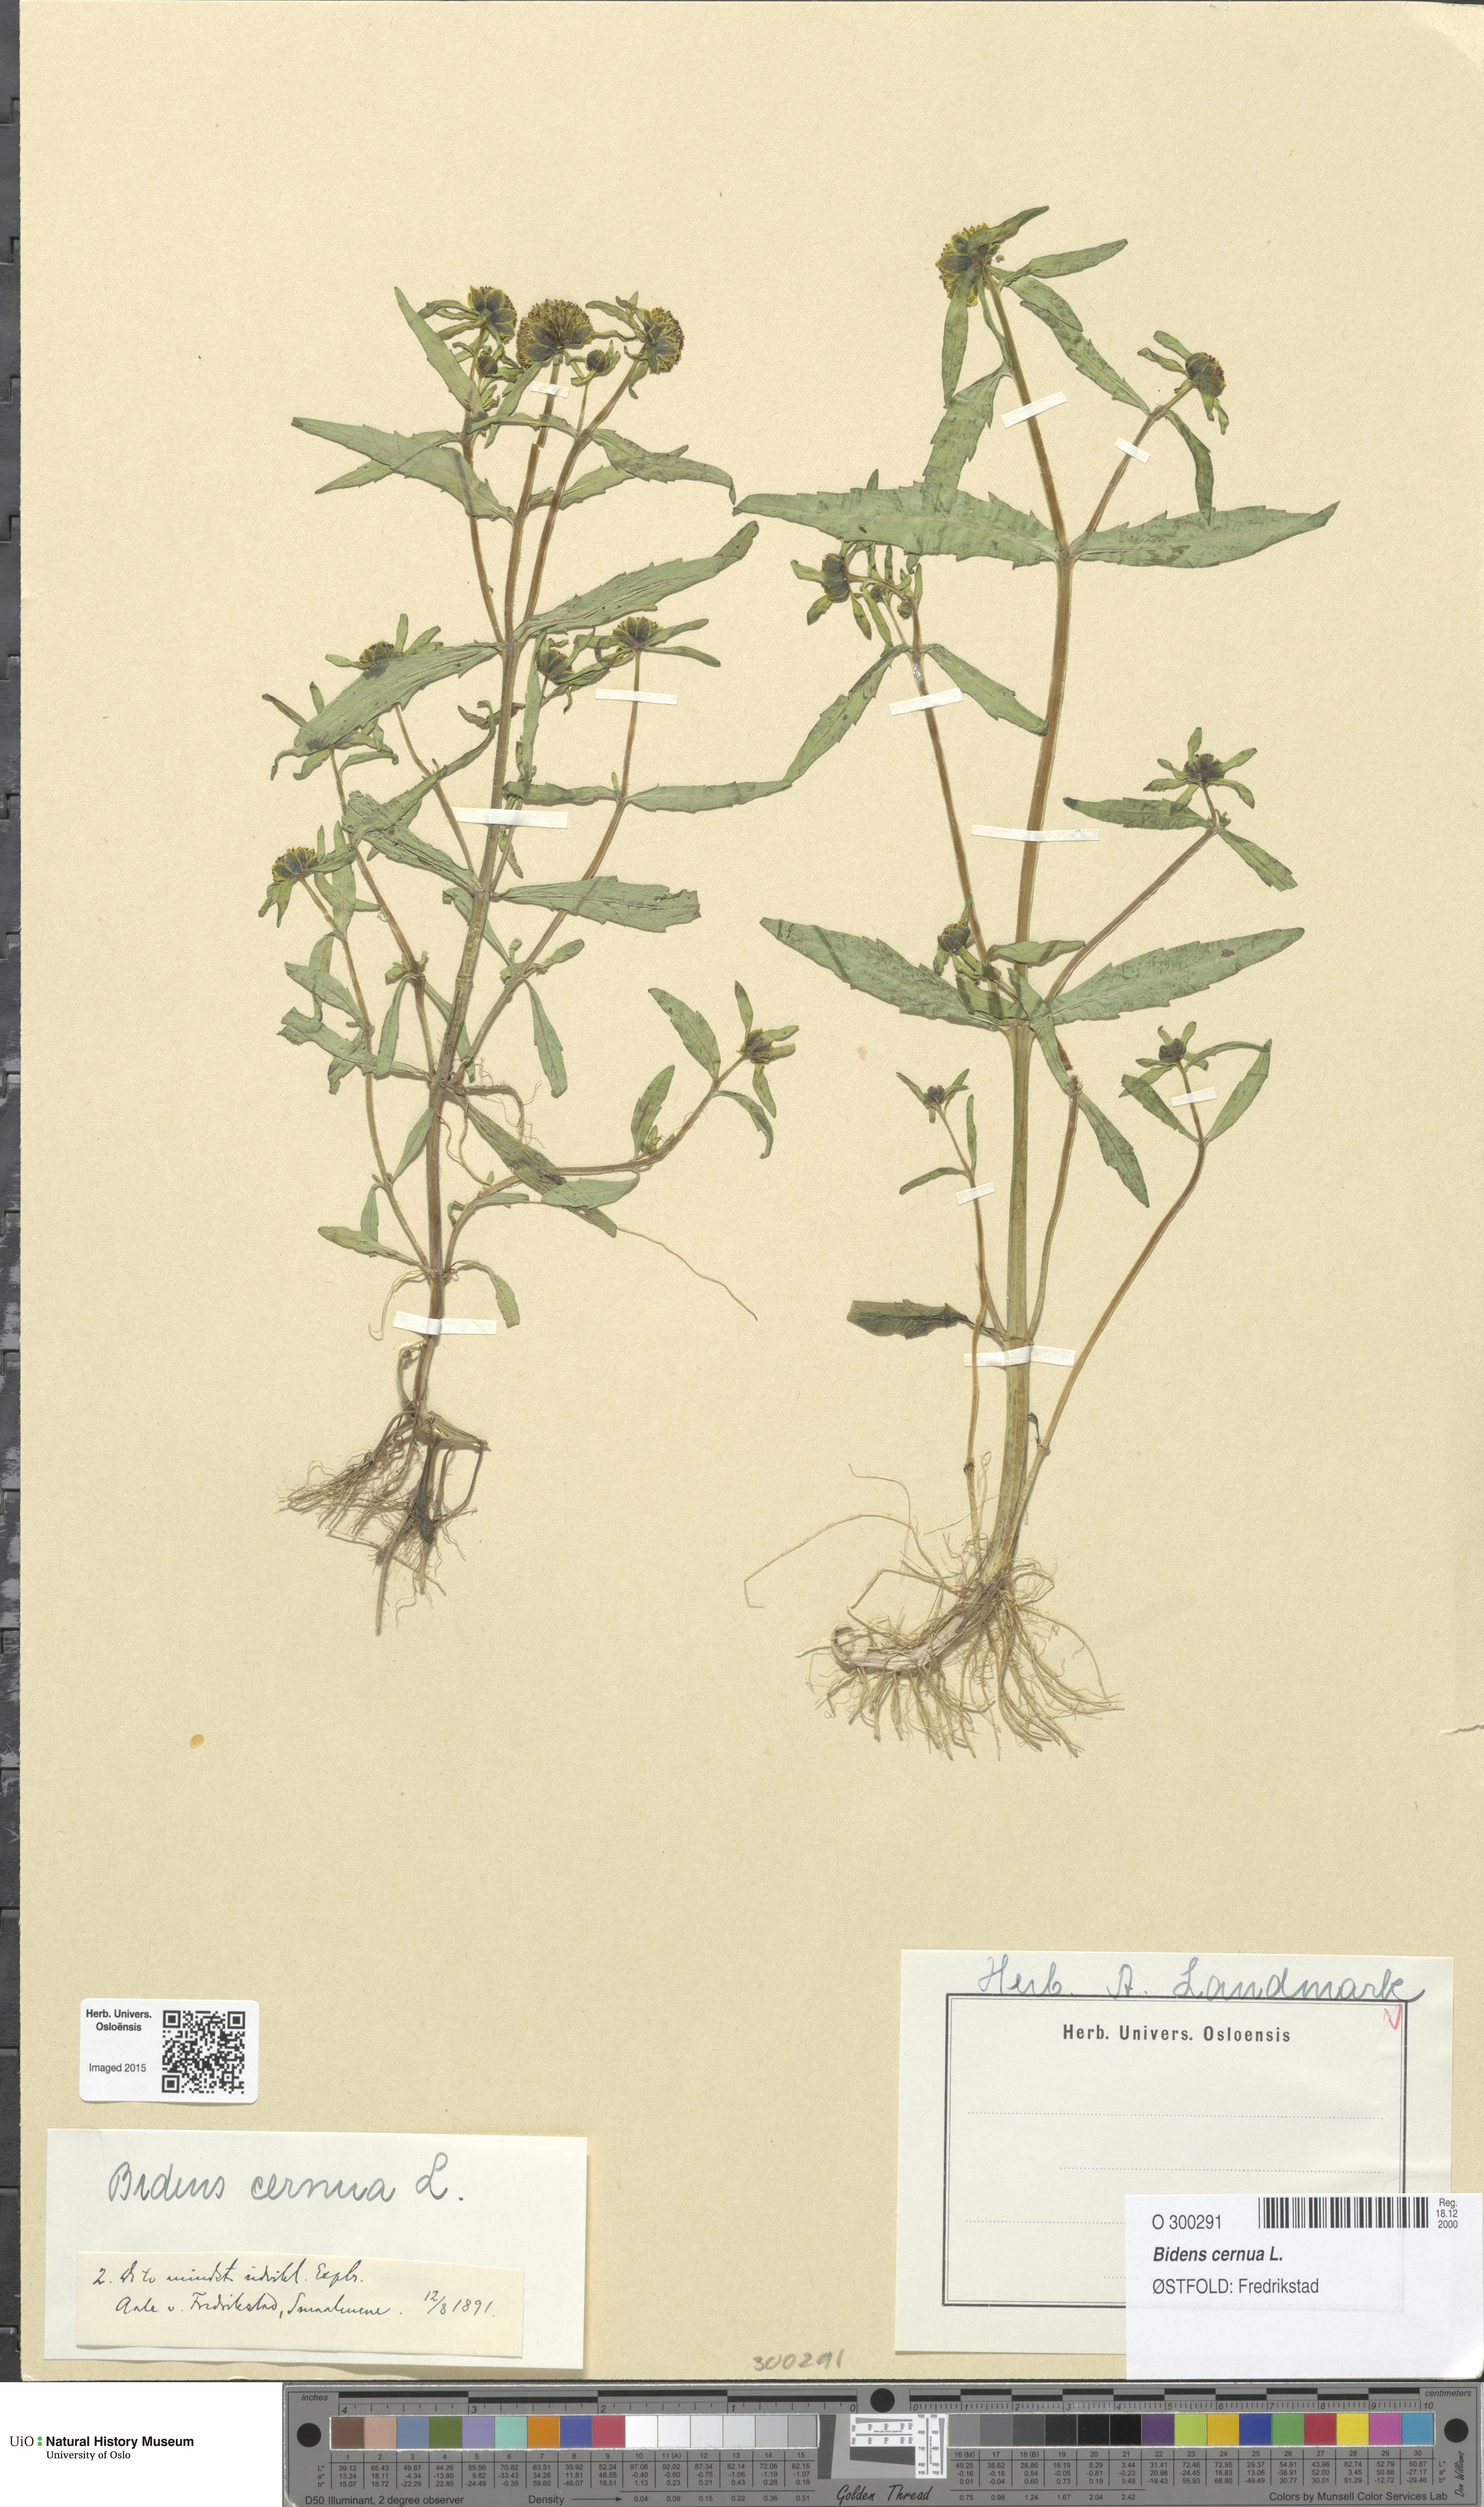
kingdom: Plantae
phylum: Tracheophyta
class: Magnoliopsida
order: Asterales
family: Asteraceae
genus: Bidens
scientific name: Bidens cernua
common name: Nodding bur-marigold
